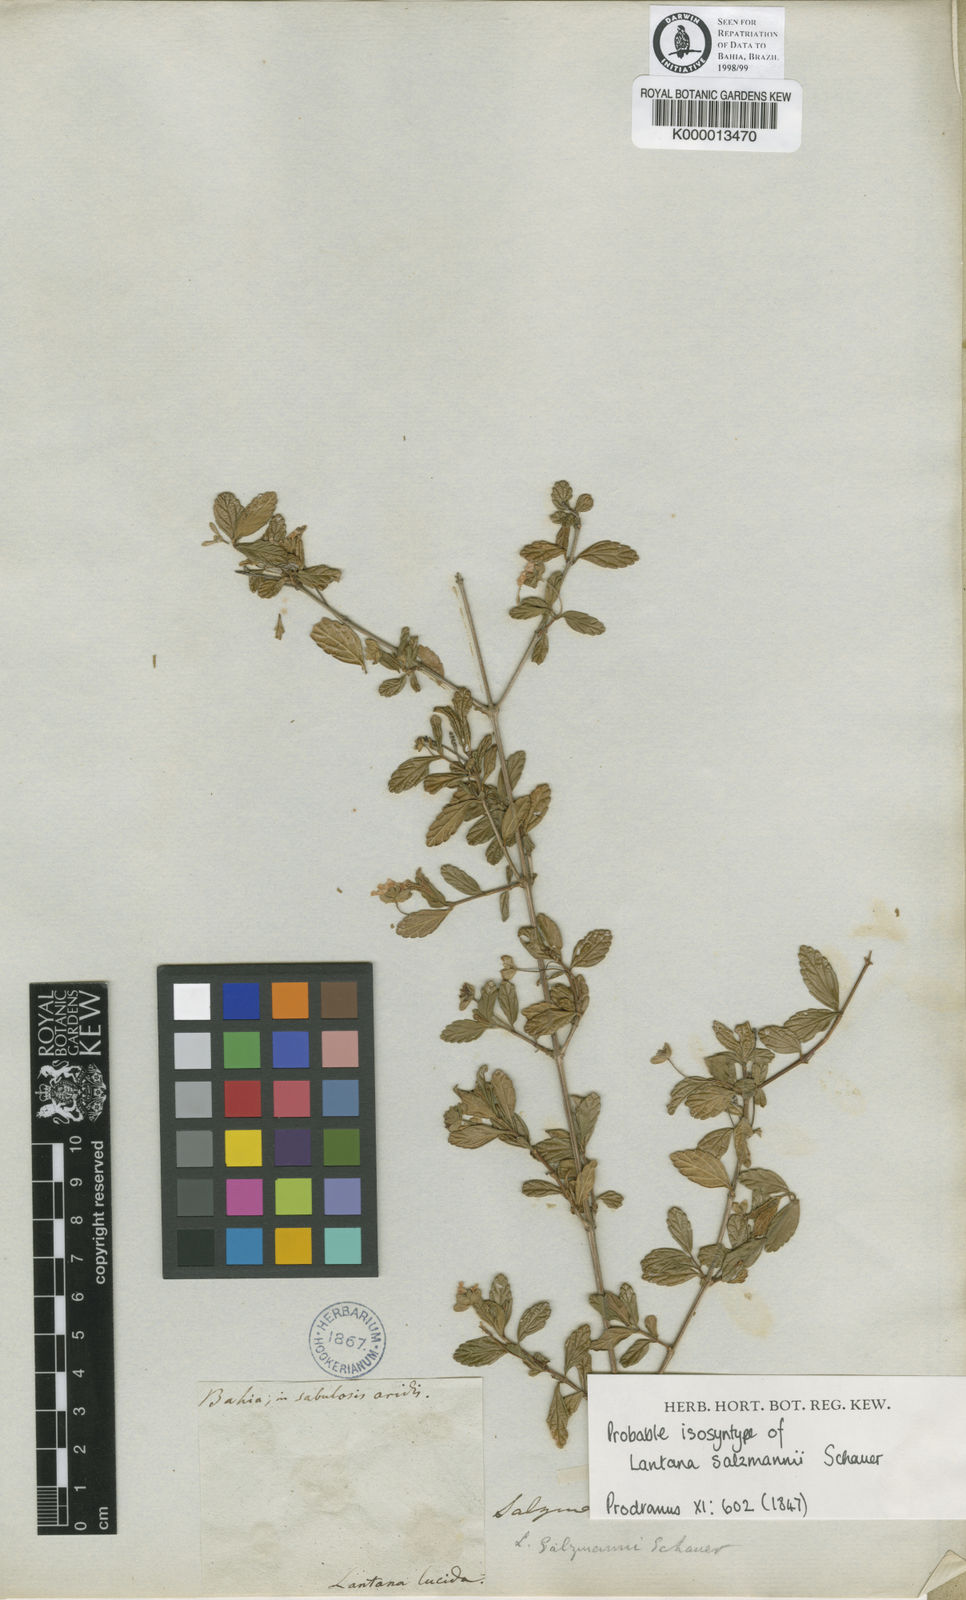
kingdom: Plantae
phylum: Tracheophyta
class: Magnoliopsida
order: Lamiales
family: Verbenaceae
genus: Lantana
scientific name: Lantana salzmannii
